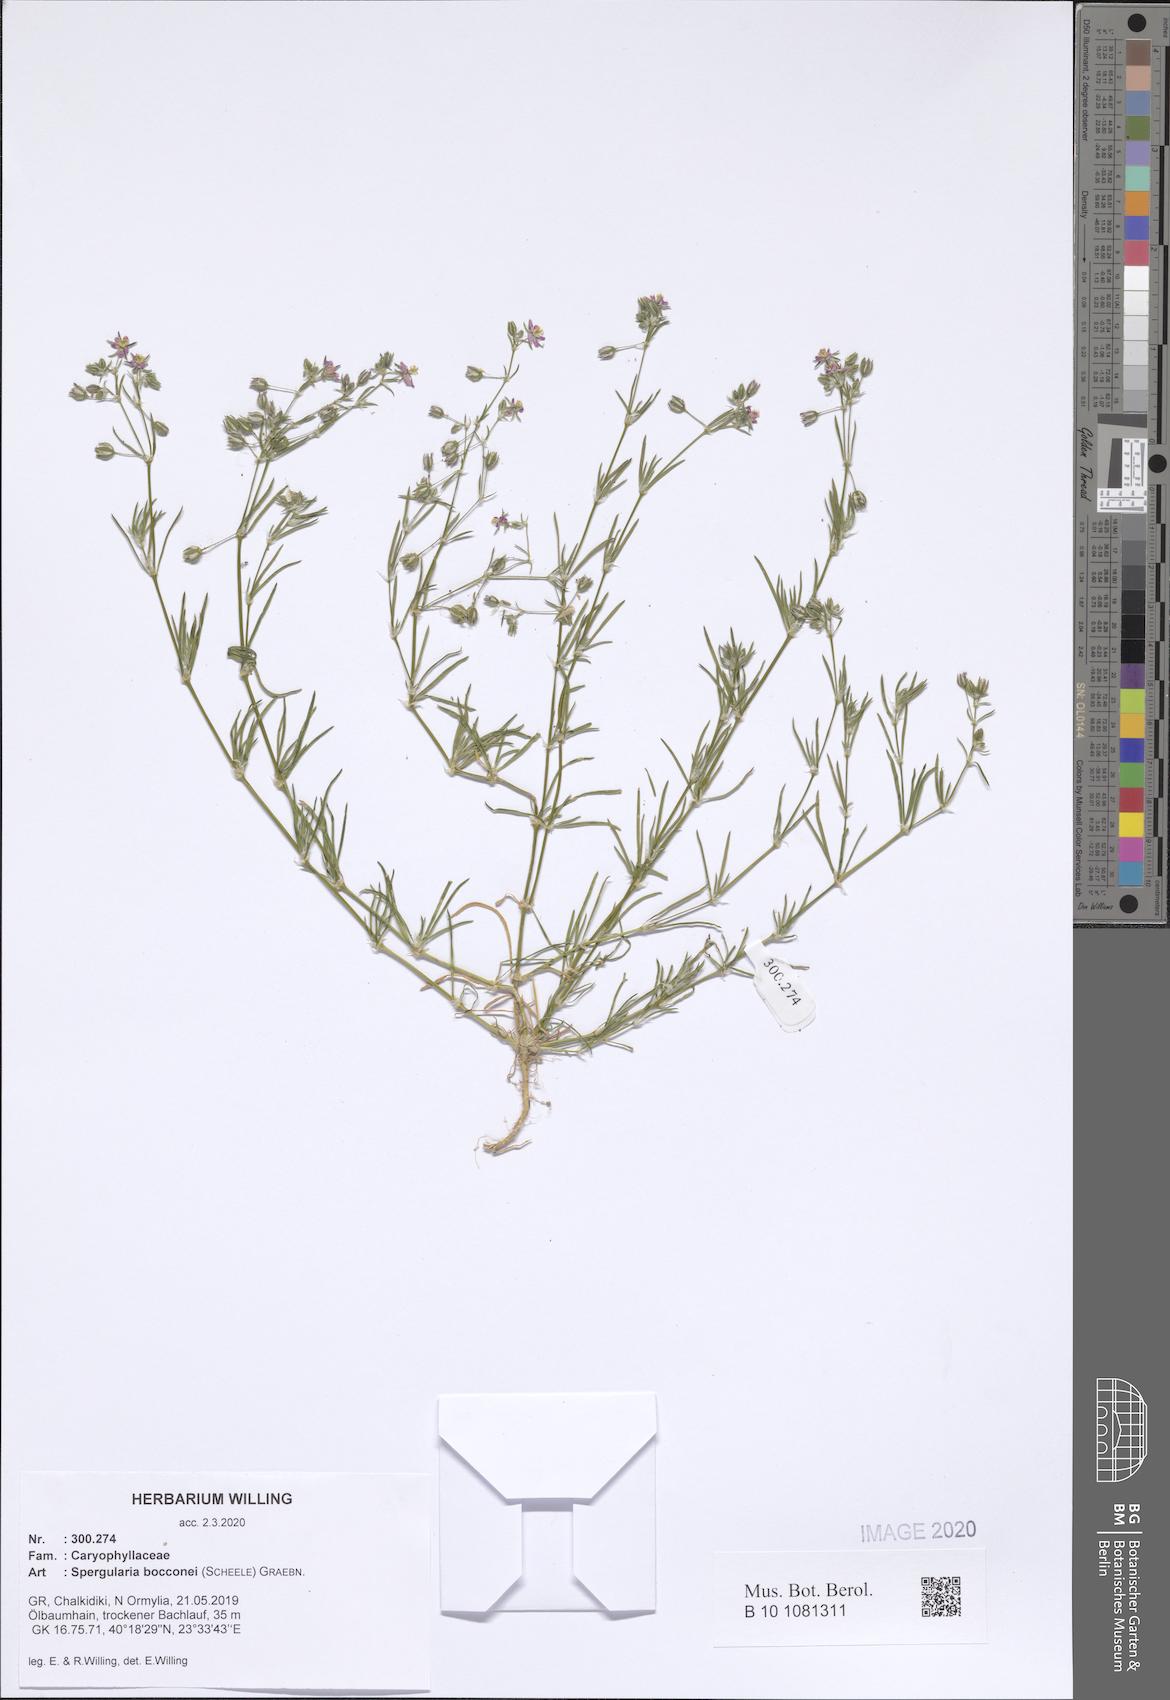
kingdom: Plantae
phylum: Tracheophyta
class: Magnoliopsida
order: Caryophyllales
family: Caryophyllaceae
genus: Spergularia
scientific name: Spergularia bocconei
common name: Greek sea-spurrey
